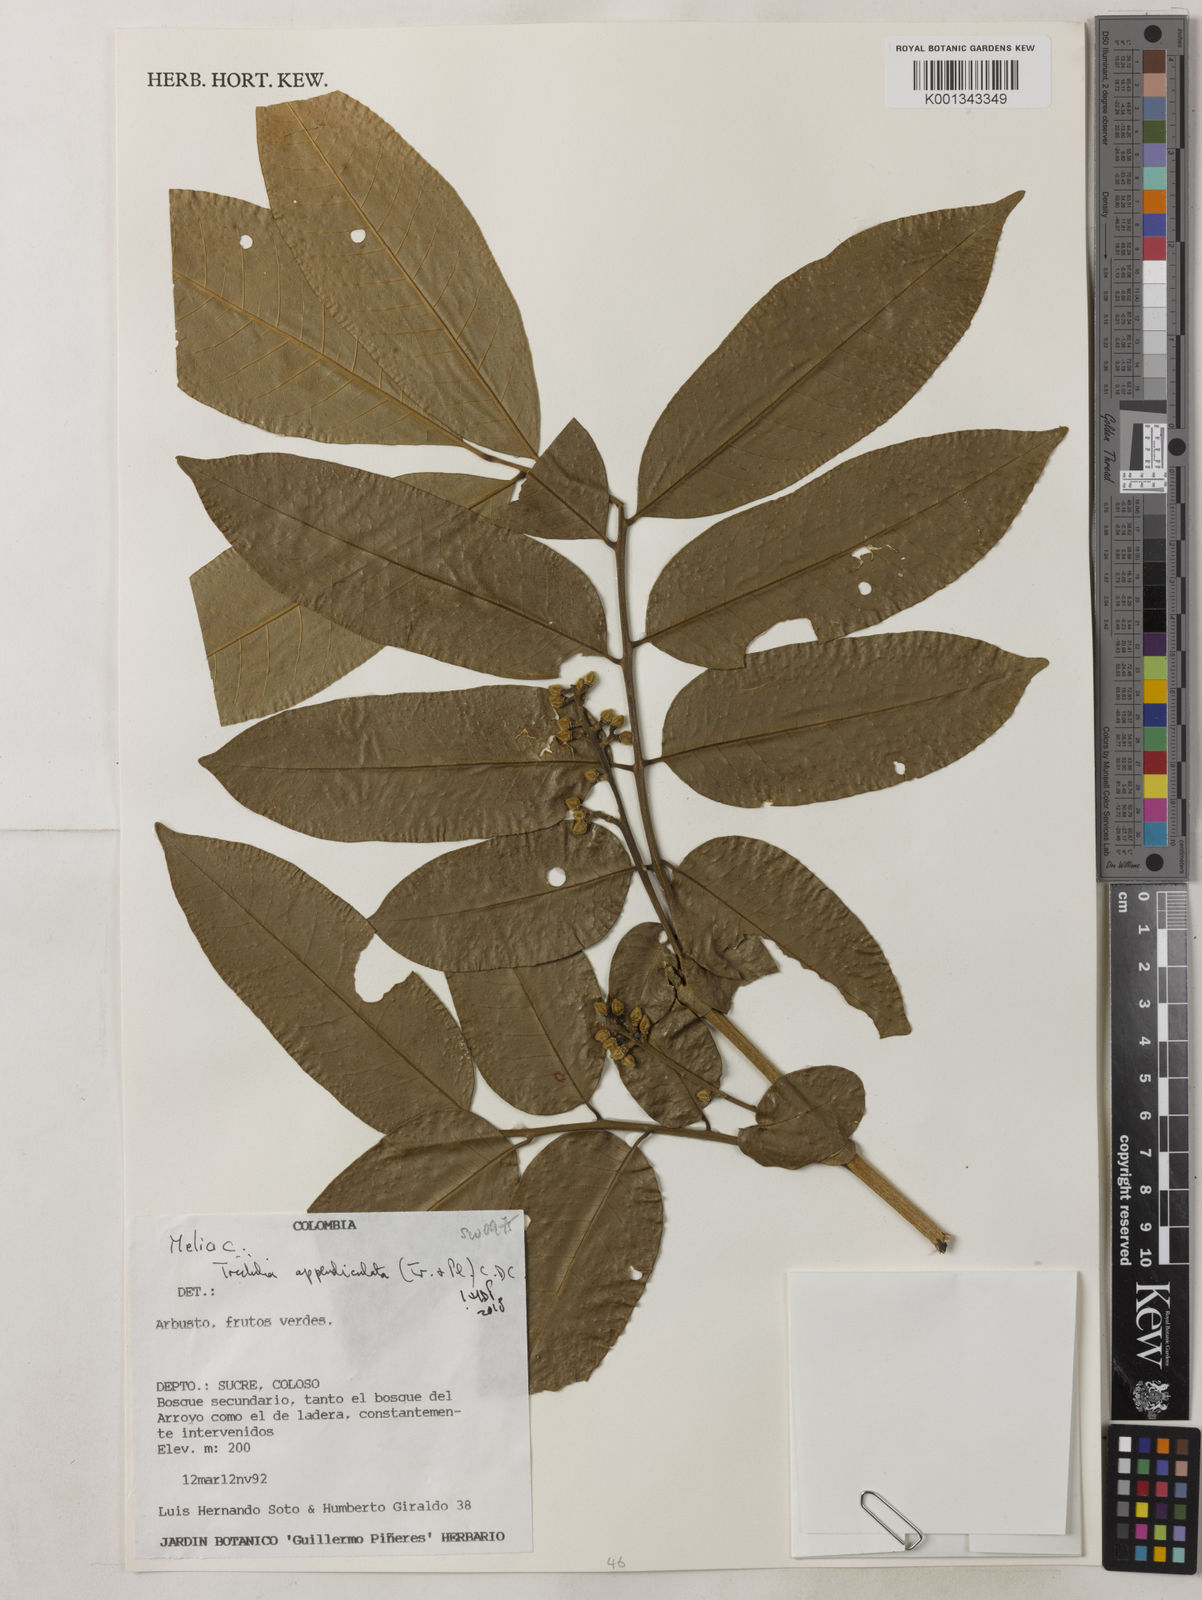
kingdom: Plantae
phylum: Tracheophyta
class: Magnoliopsida
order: Sapindales
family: Meliaceae
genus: Trichilia
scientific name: Trichilia appendiculata
